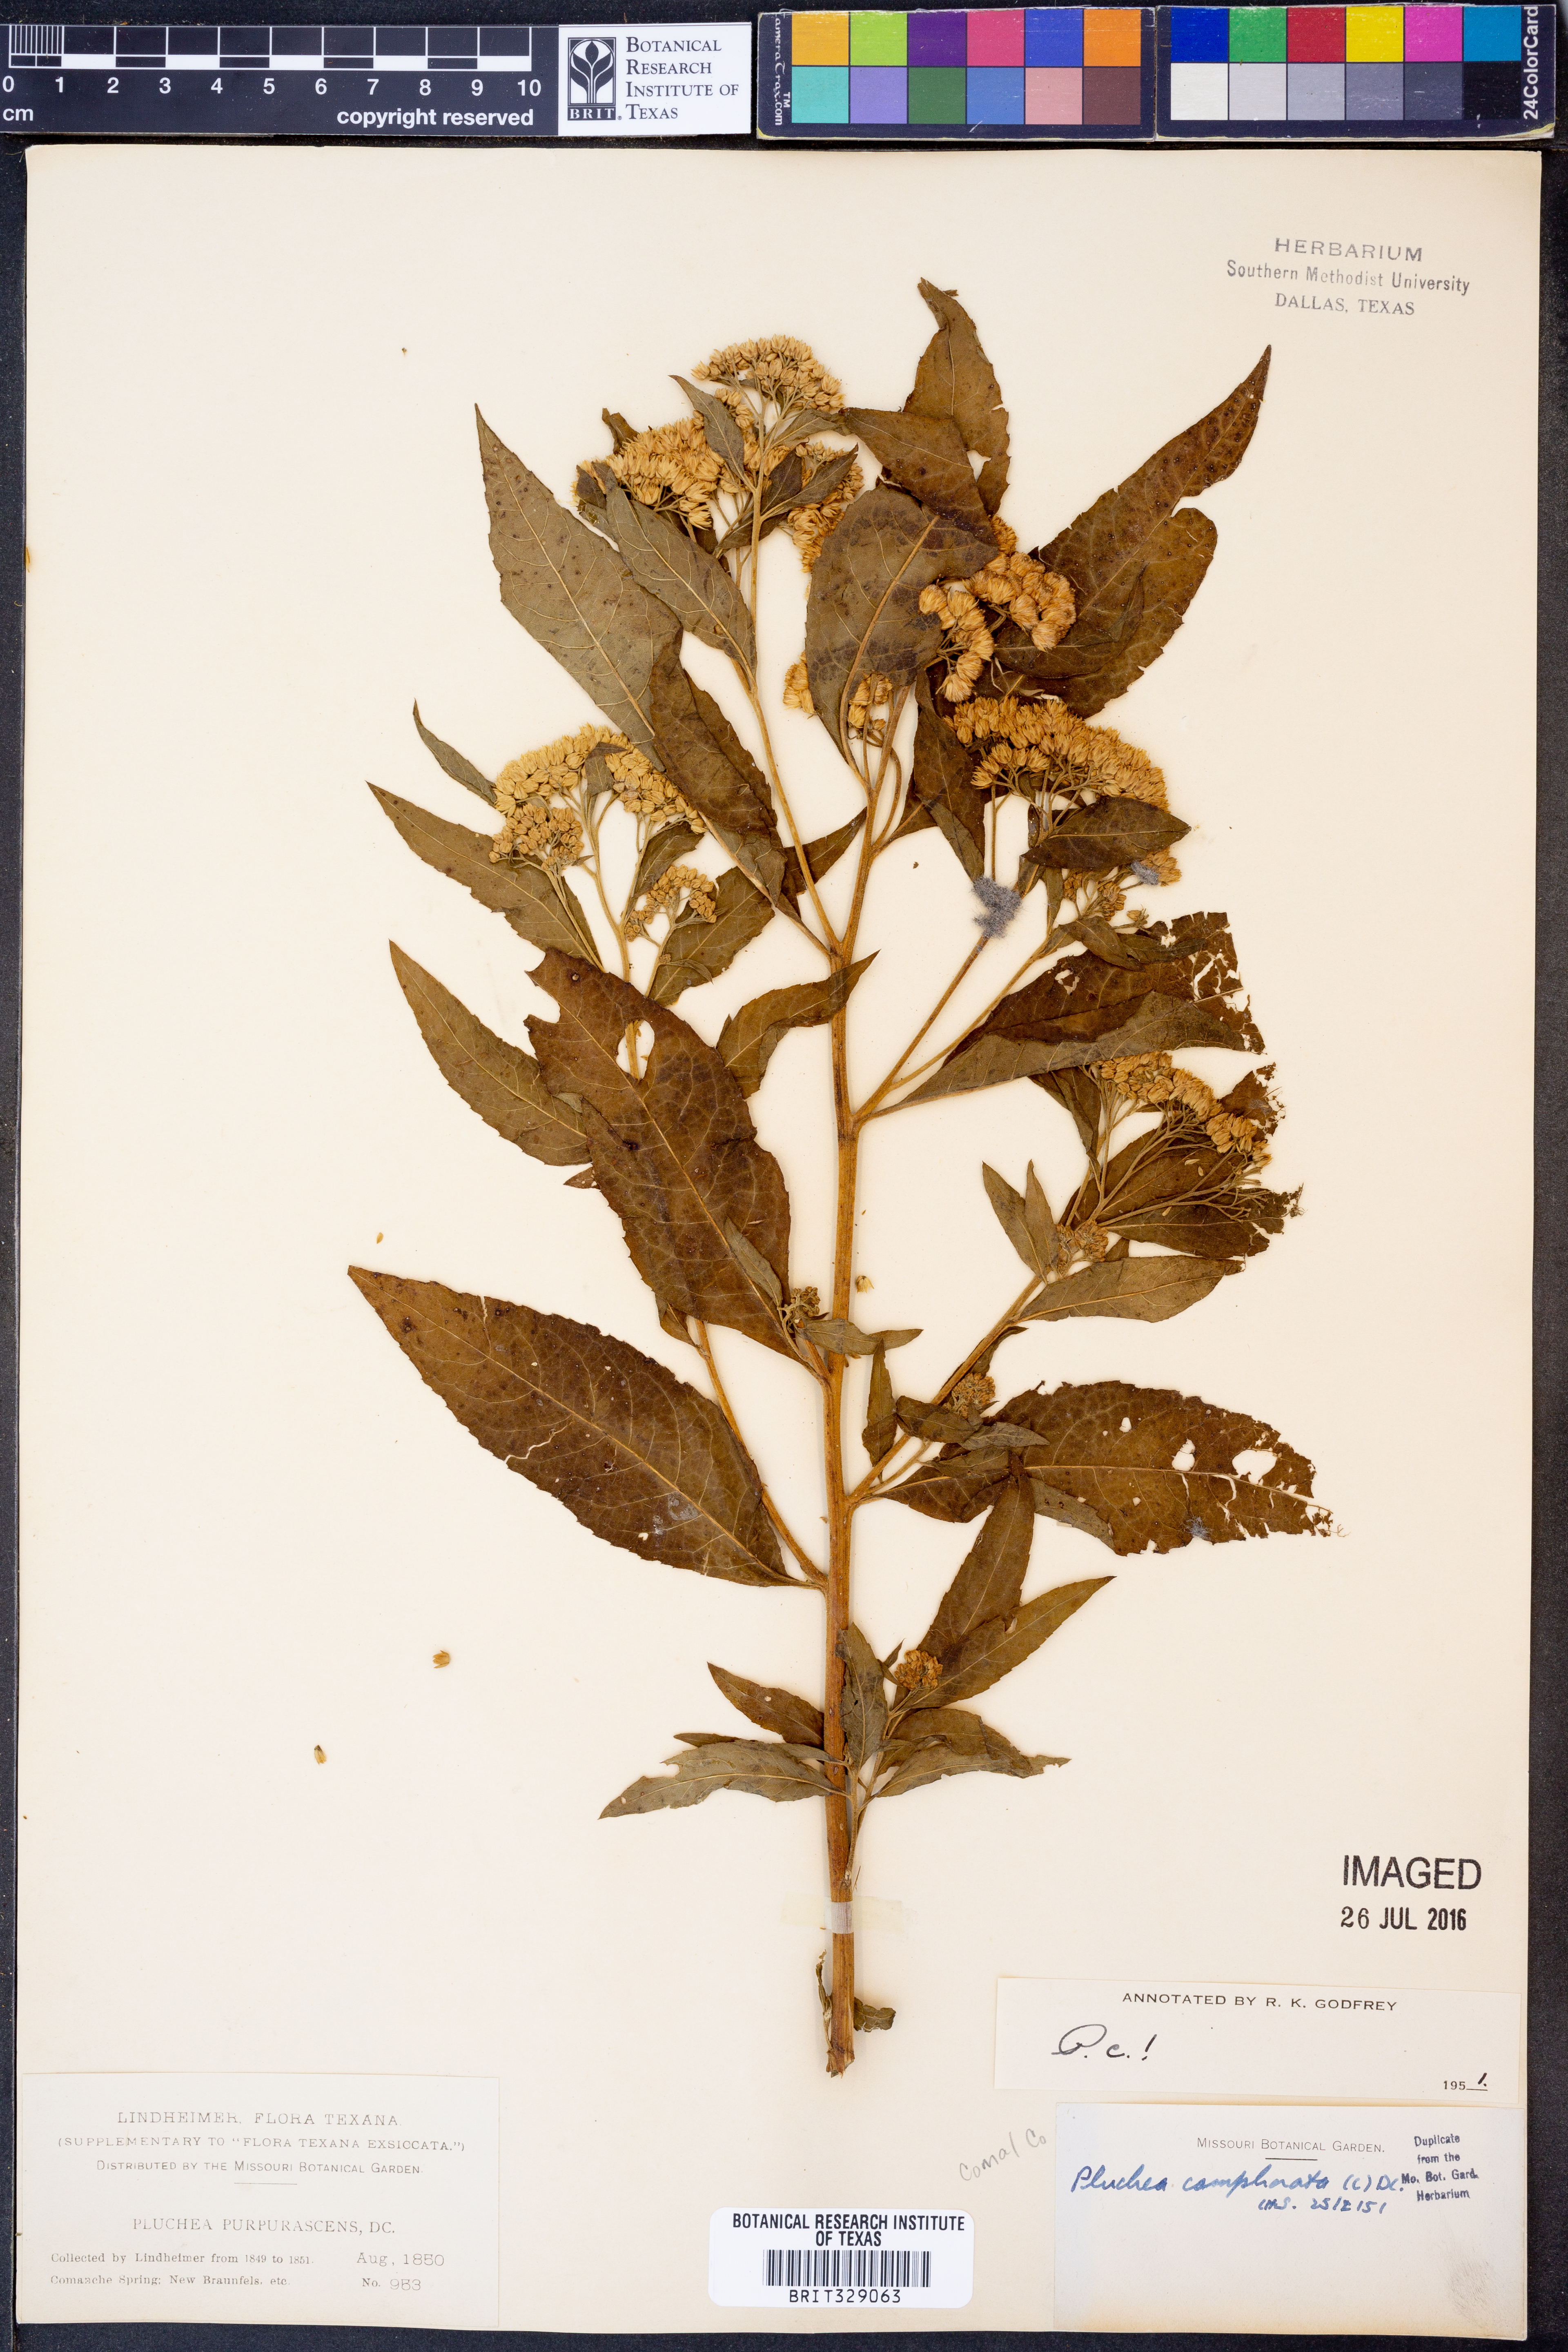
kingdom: Plantae
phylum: Tracheophyta
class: Magnoliopsida
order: Asterales
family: Asteraceae
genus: Pluchea
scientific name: Pluchea camphorata
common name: Camphor pluchea
